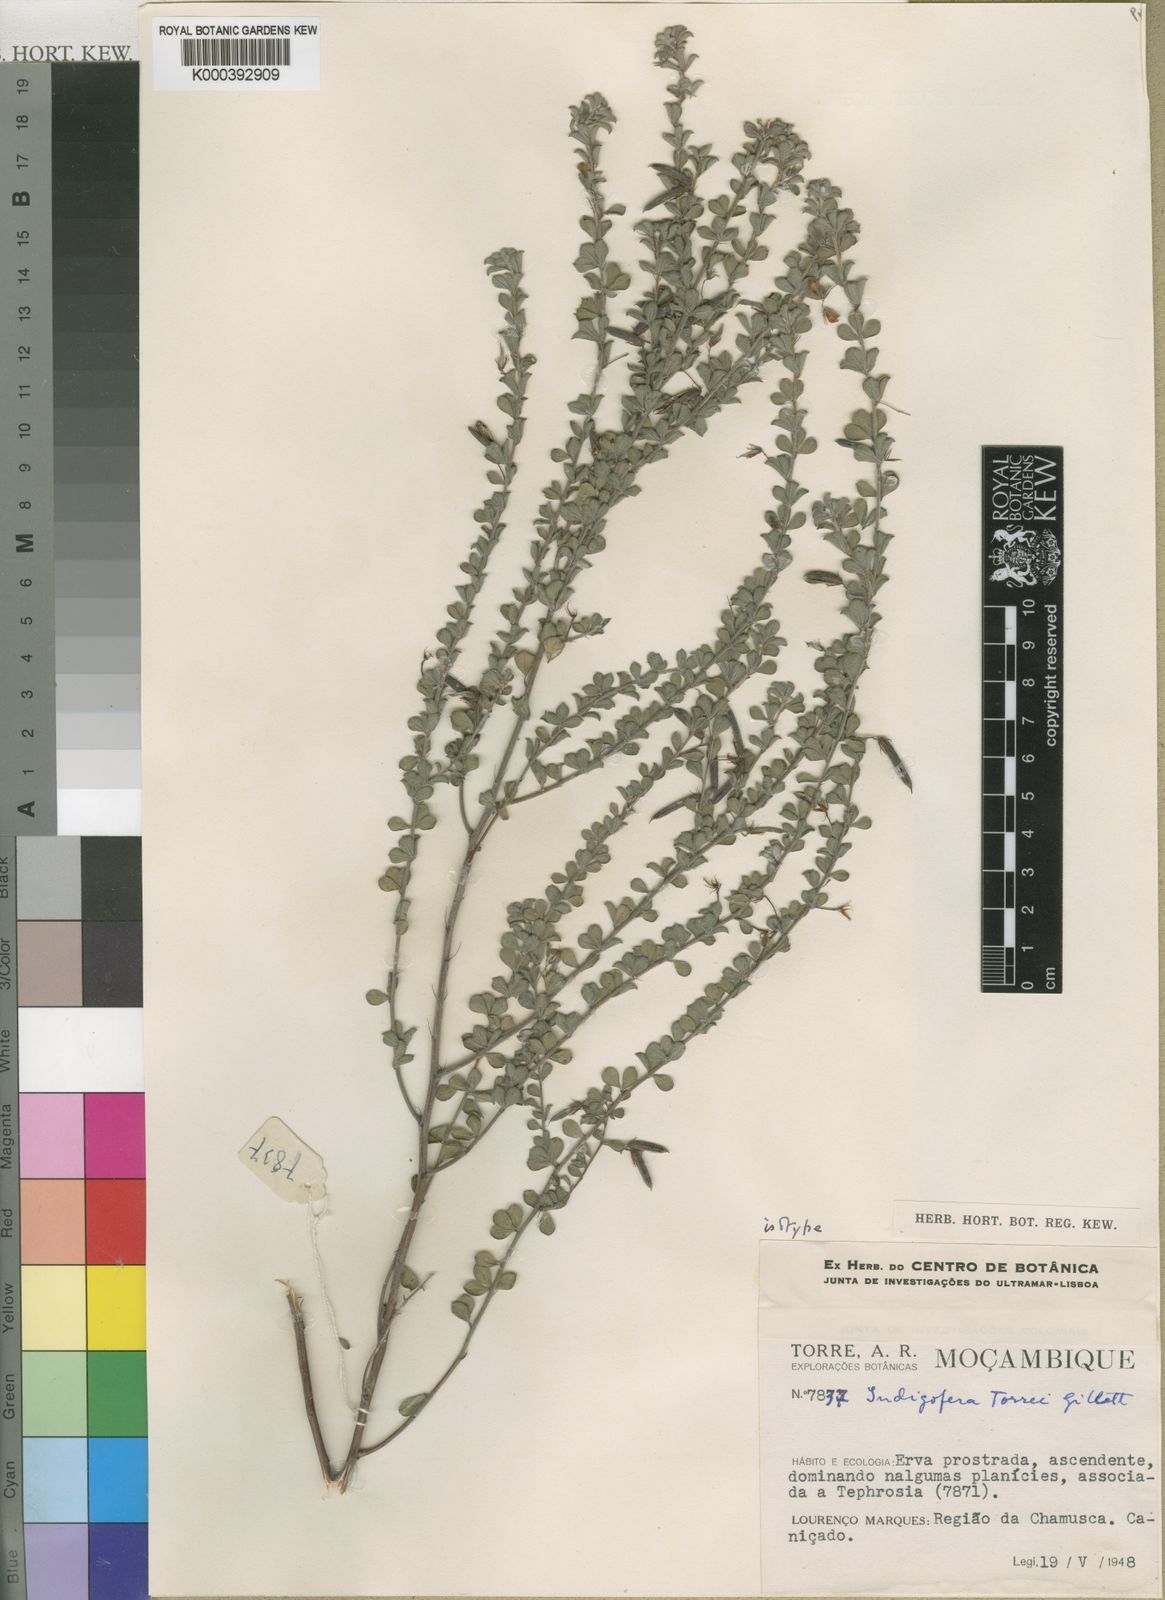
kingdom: Plantae
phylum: Tracheophyta
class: Magnoliopsida
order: Fabales
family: Fabaceae
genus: Indigofera
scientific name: Indigofera torrei
